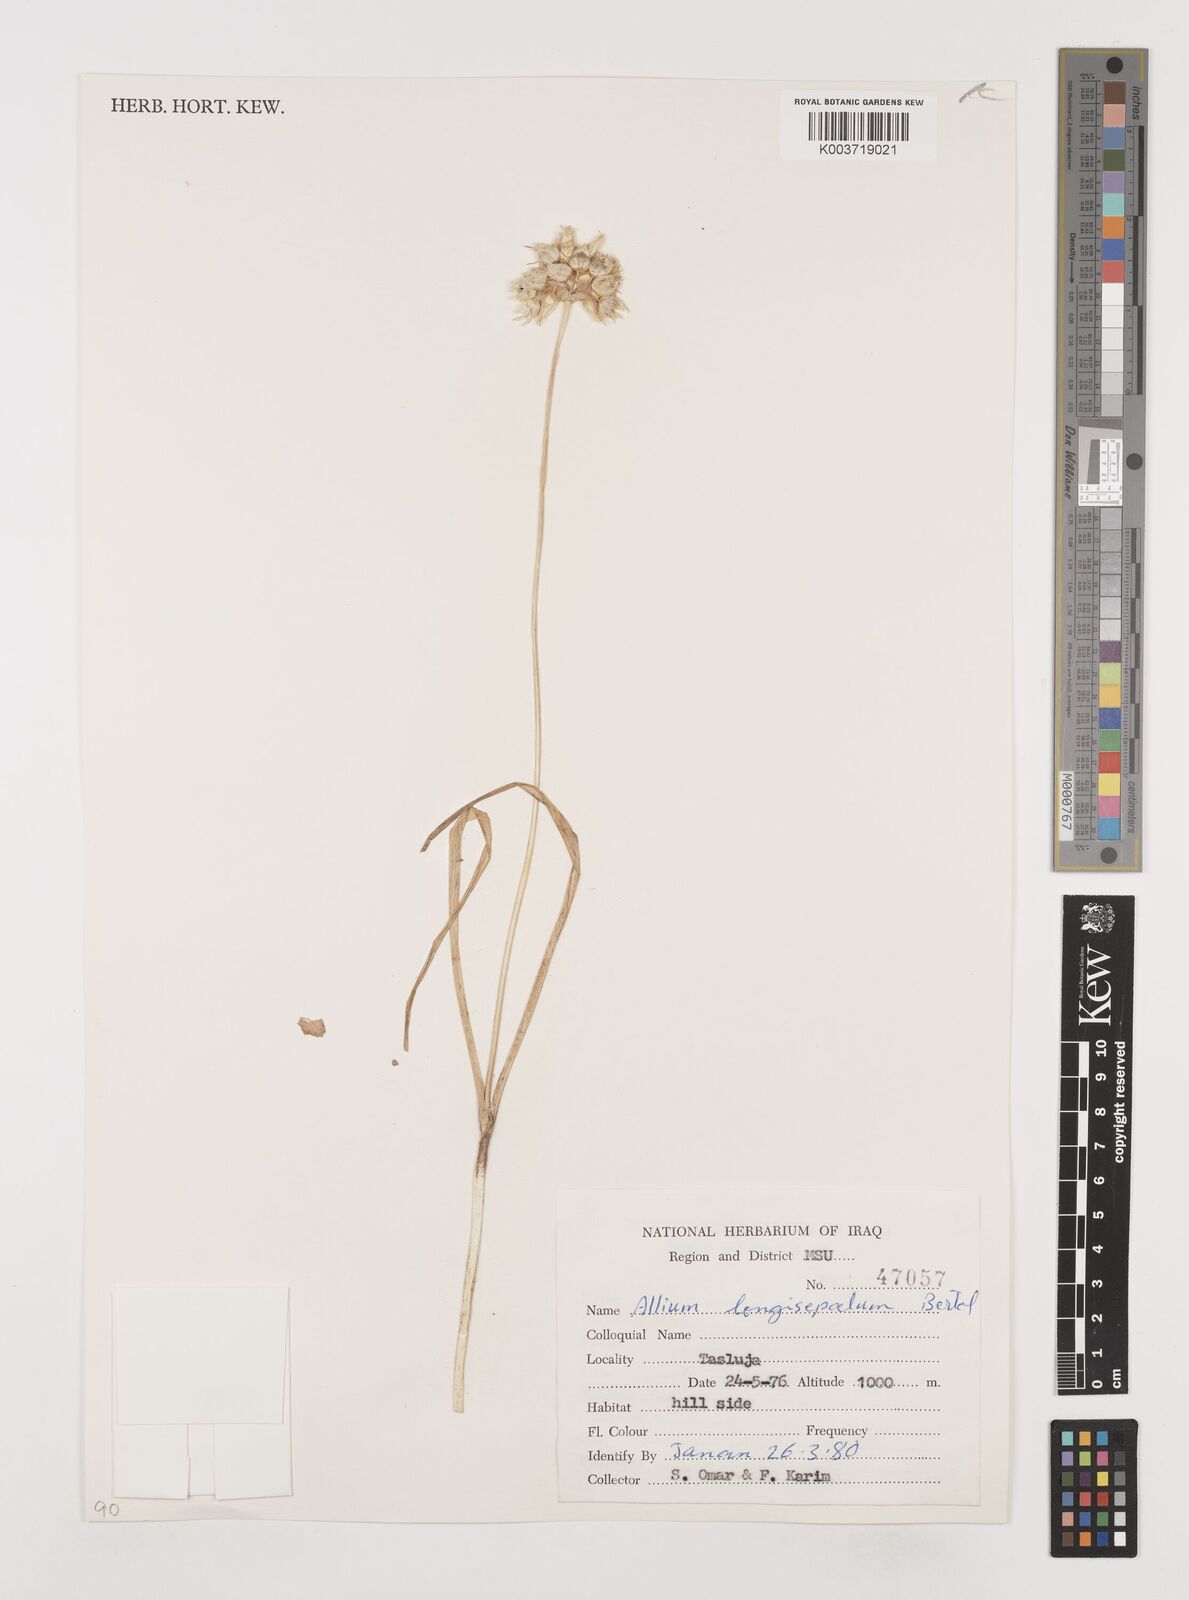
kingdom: Plantae
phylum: Tracheophyta
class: Liliopsida
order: Asparagales
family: Amaryllidaceae
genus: Allium
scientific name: Allium longisepalum
